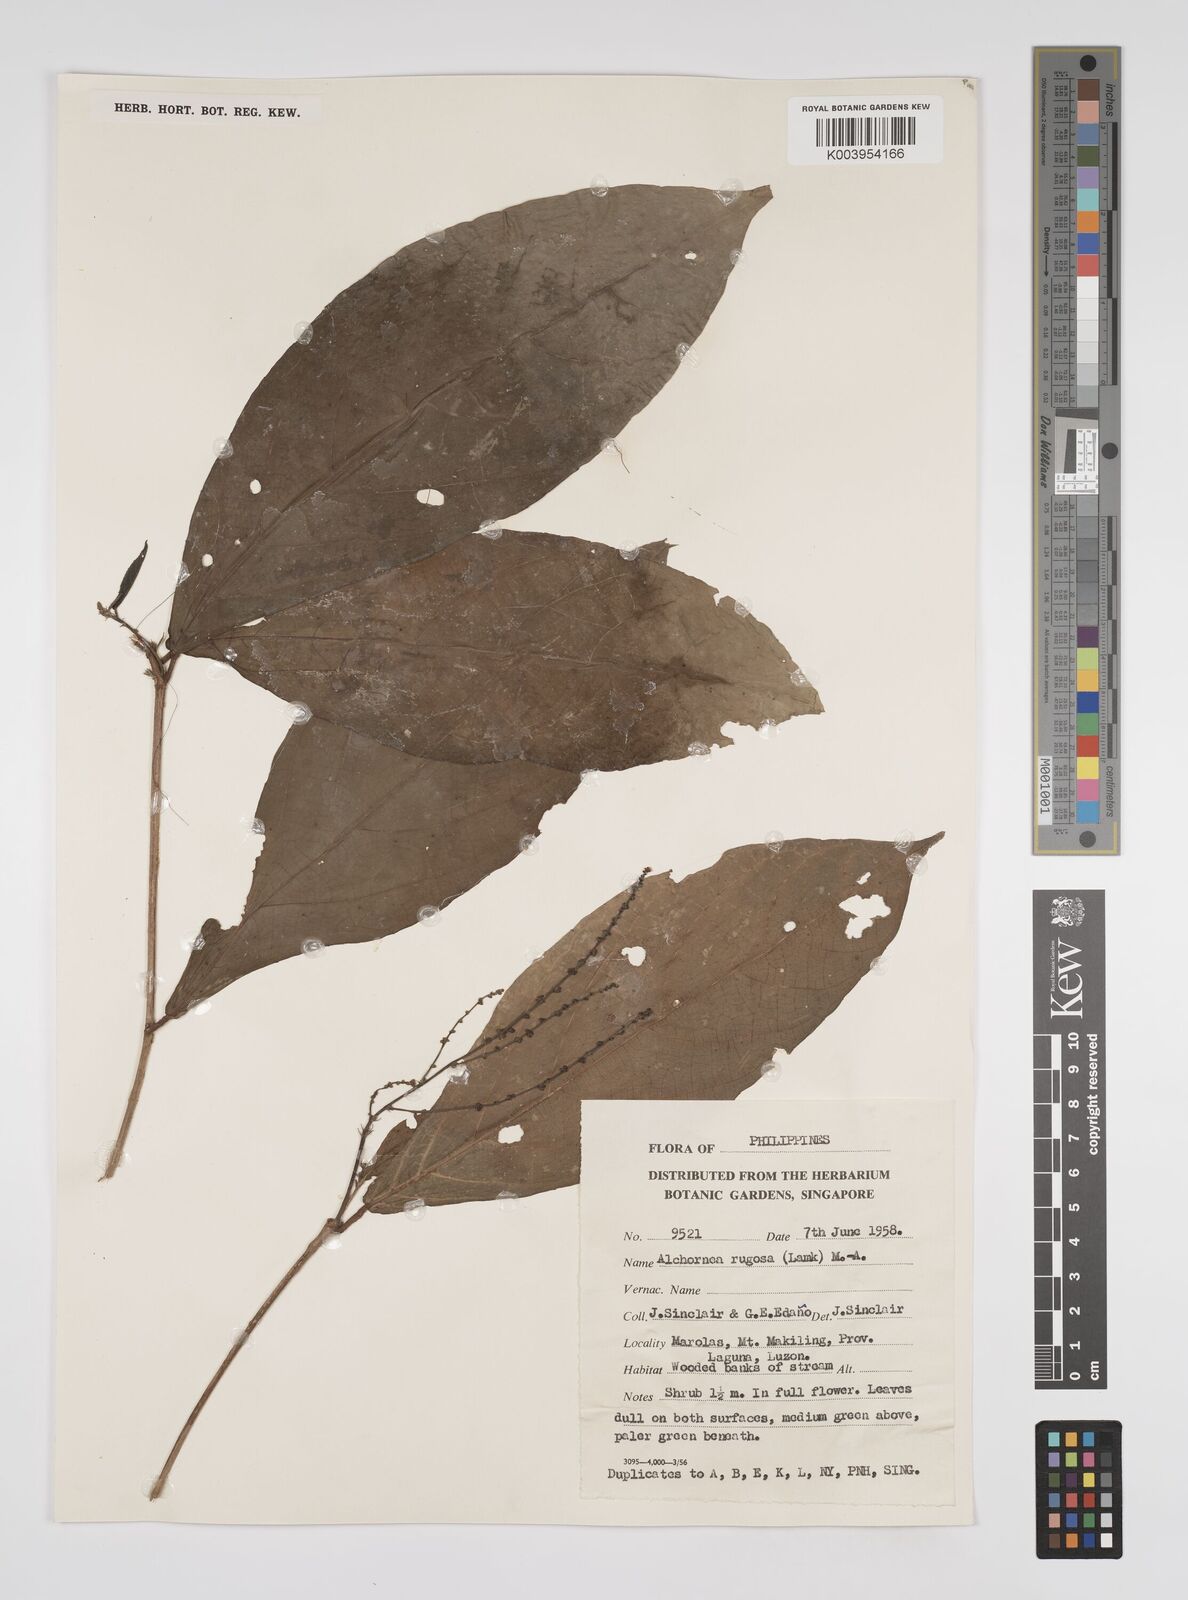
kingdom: Plantae
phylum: Tracheophyta
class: Magnoliopsida
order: Malpighiales
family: Euphorbiaceae
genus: Alchornea
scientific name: Alchornea rugosa
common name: Alchorntree
